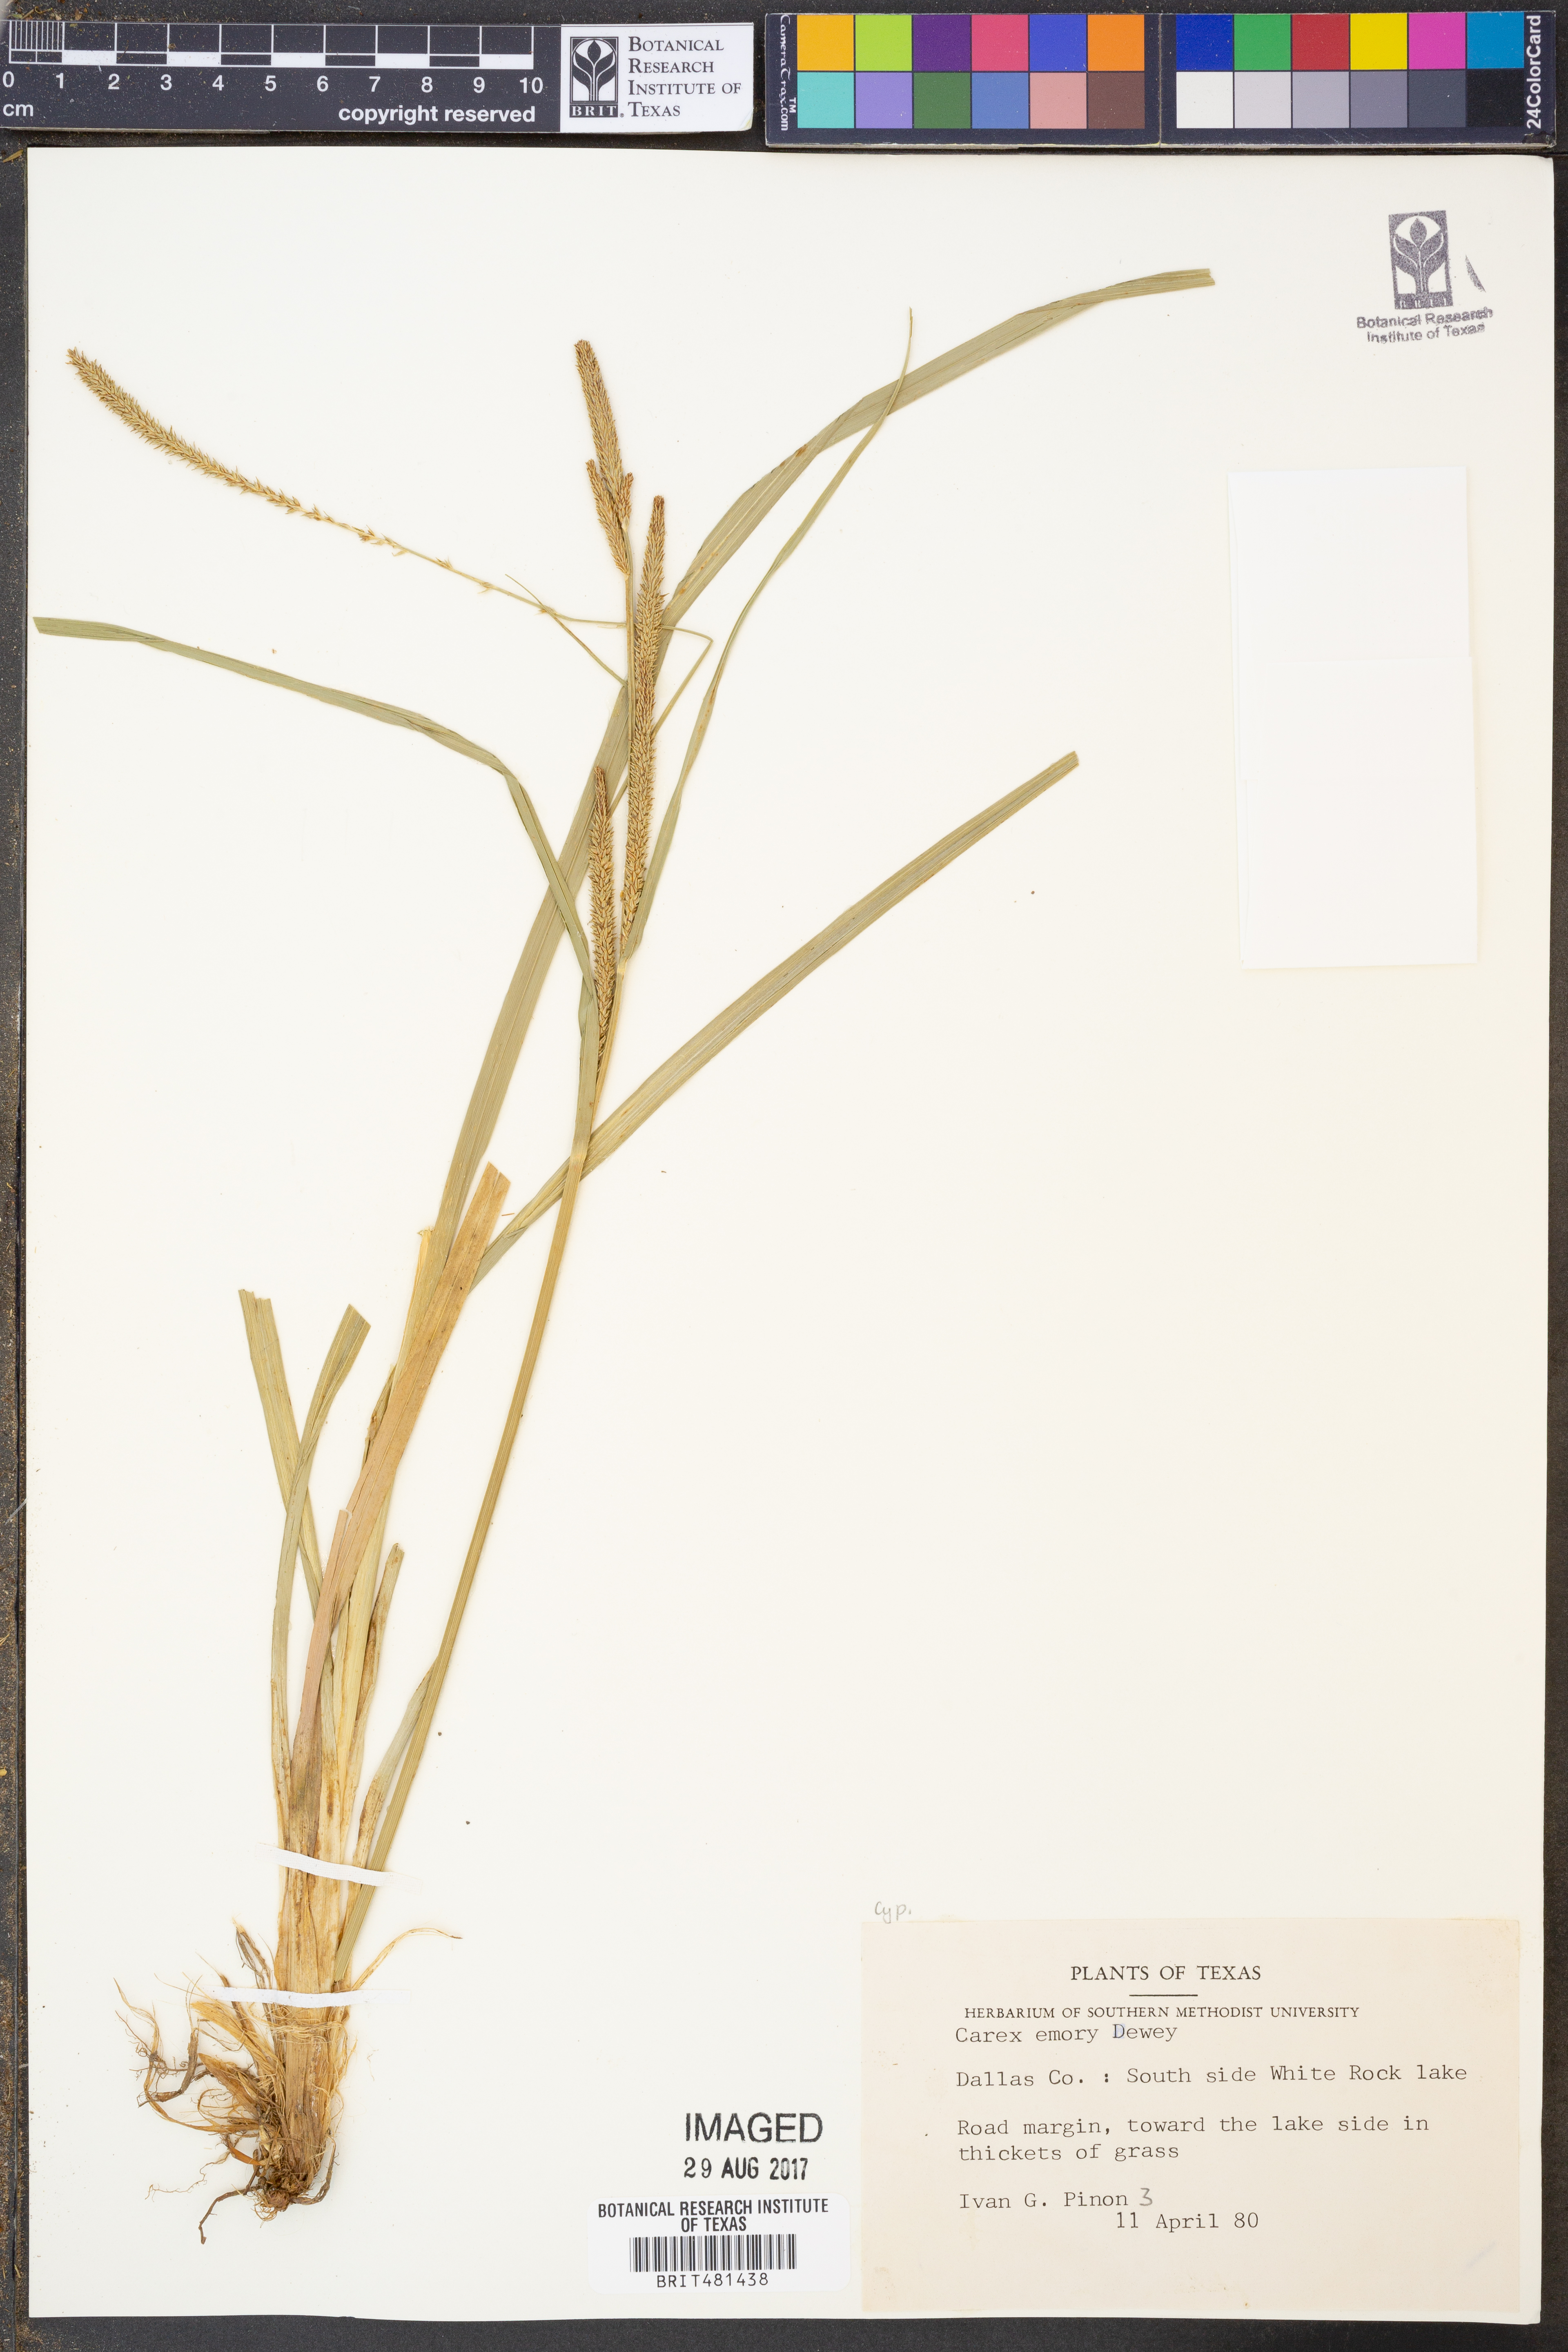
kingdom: Plantae
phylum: Tracheophyta
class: Liliopsida
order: Poales
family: Cyperaceae
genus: Carex
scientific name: Carex emoryi
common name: Emory's sedge
